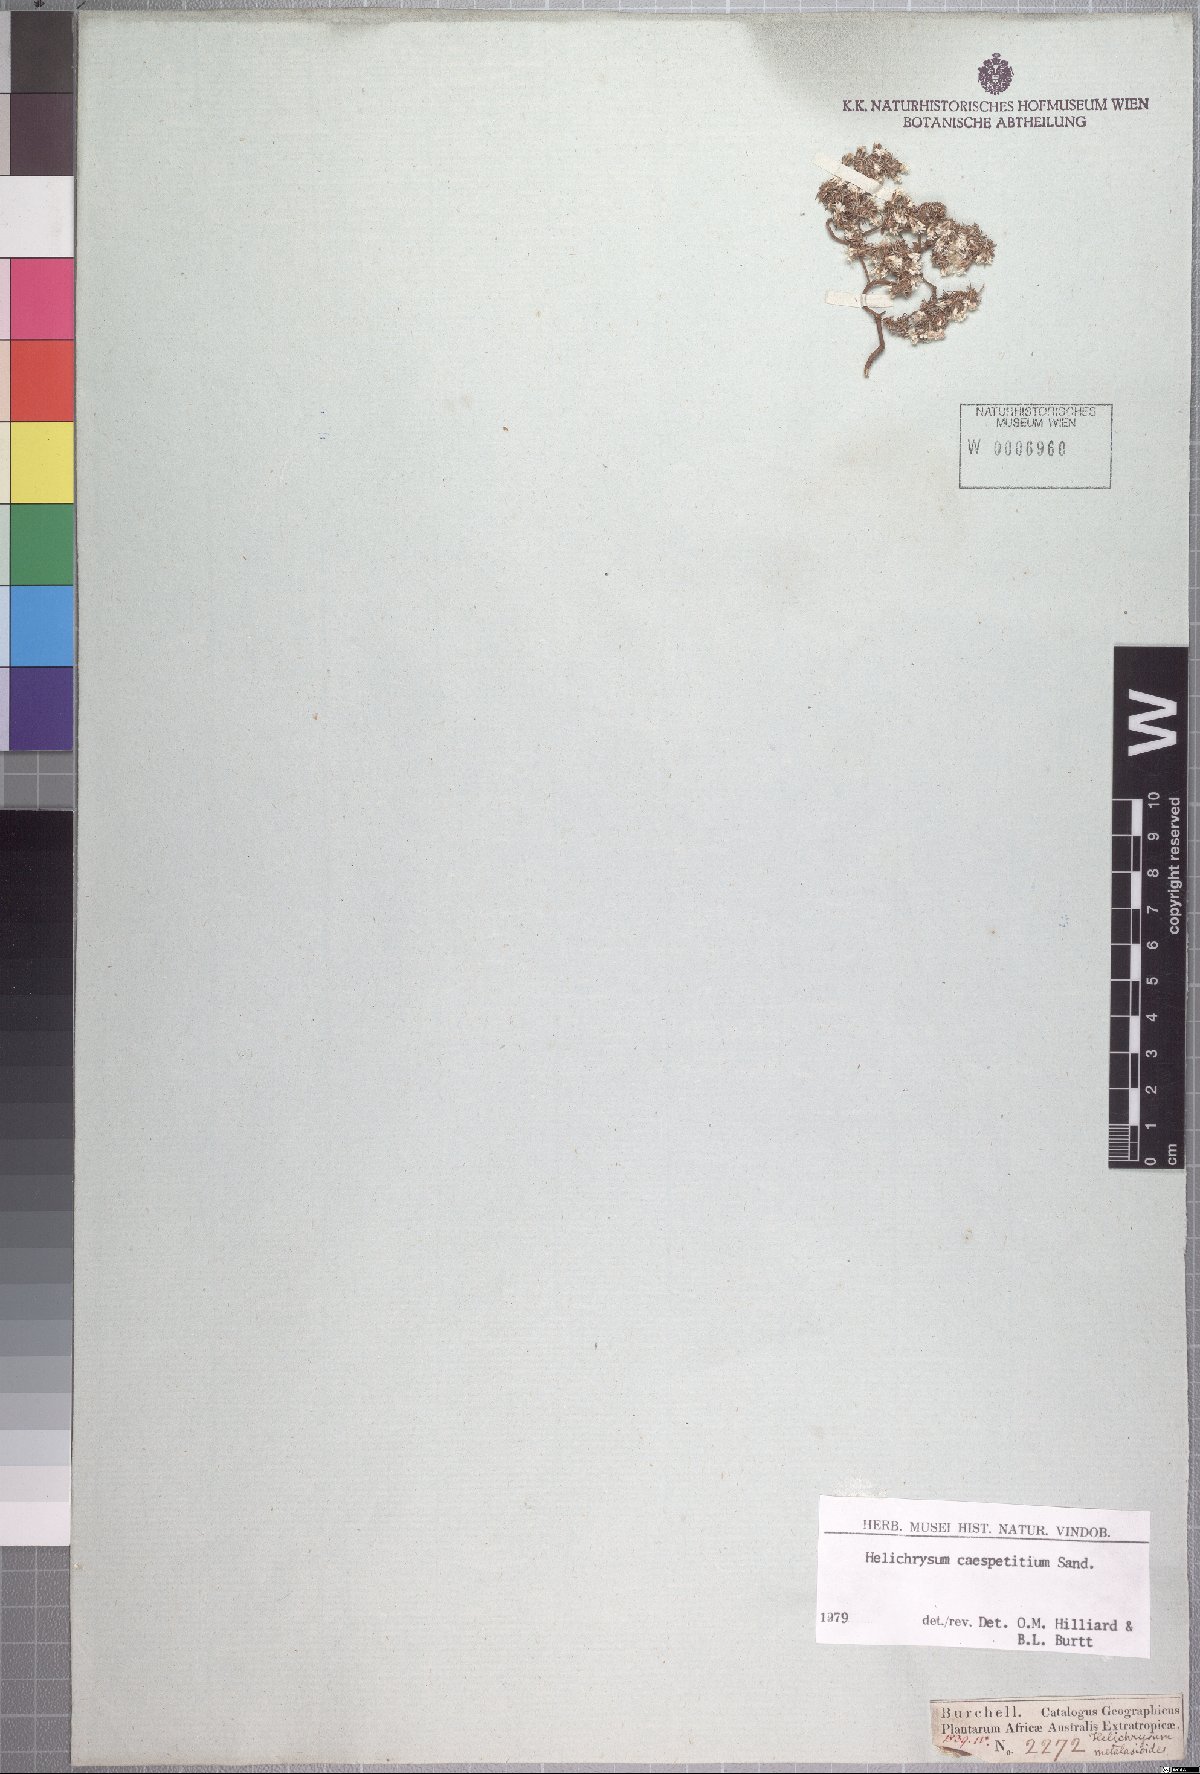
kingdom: Plantae
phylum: Tracheophyta
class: Magnoliopsida
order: Asterales
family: Asteraceae
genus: Helichrysum
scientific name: Helichrysum caespititium
